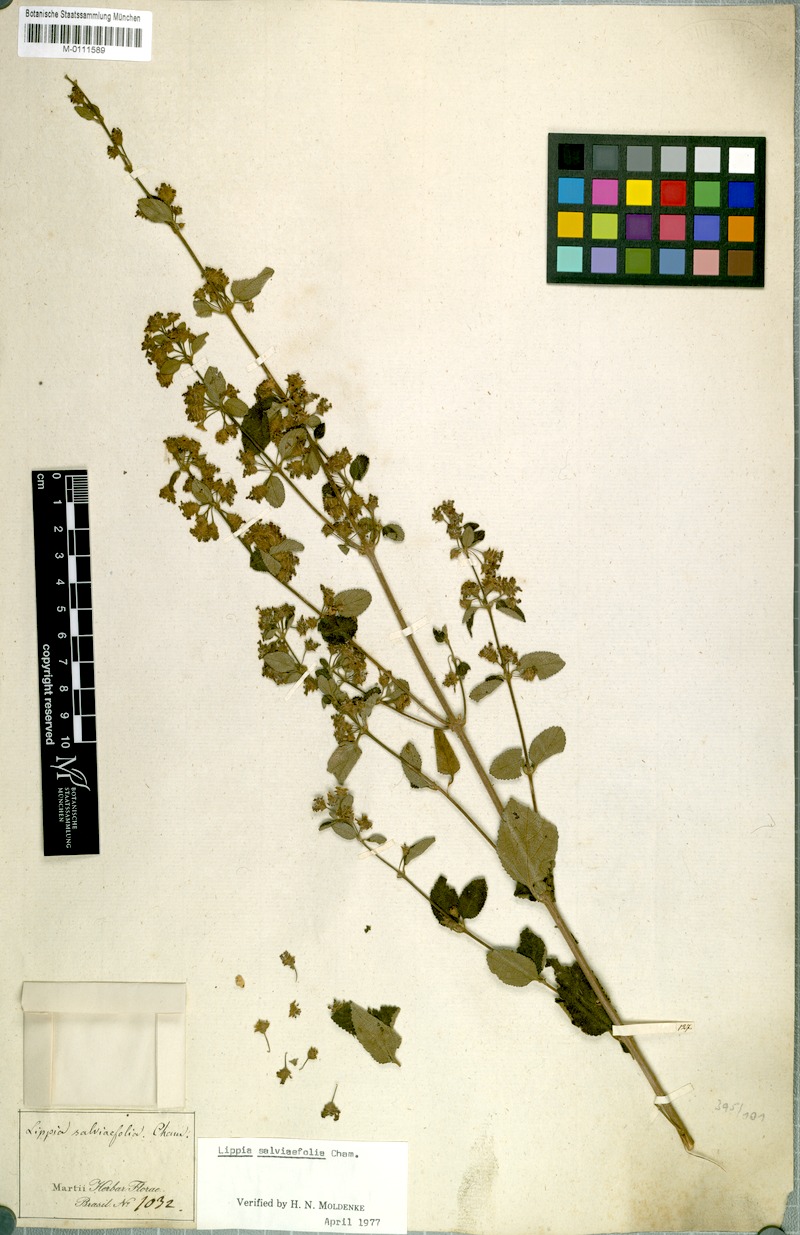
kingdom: Plantae
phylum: Tracheophyta
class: Magnoliopsida
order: Lamiales
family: Verbenaceae
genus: Lippia
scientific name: Lippia origanoides
